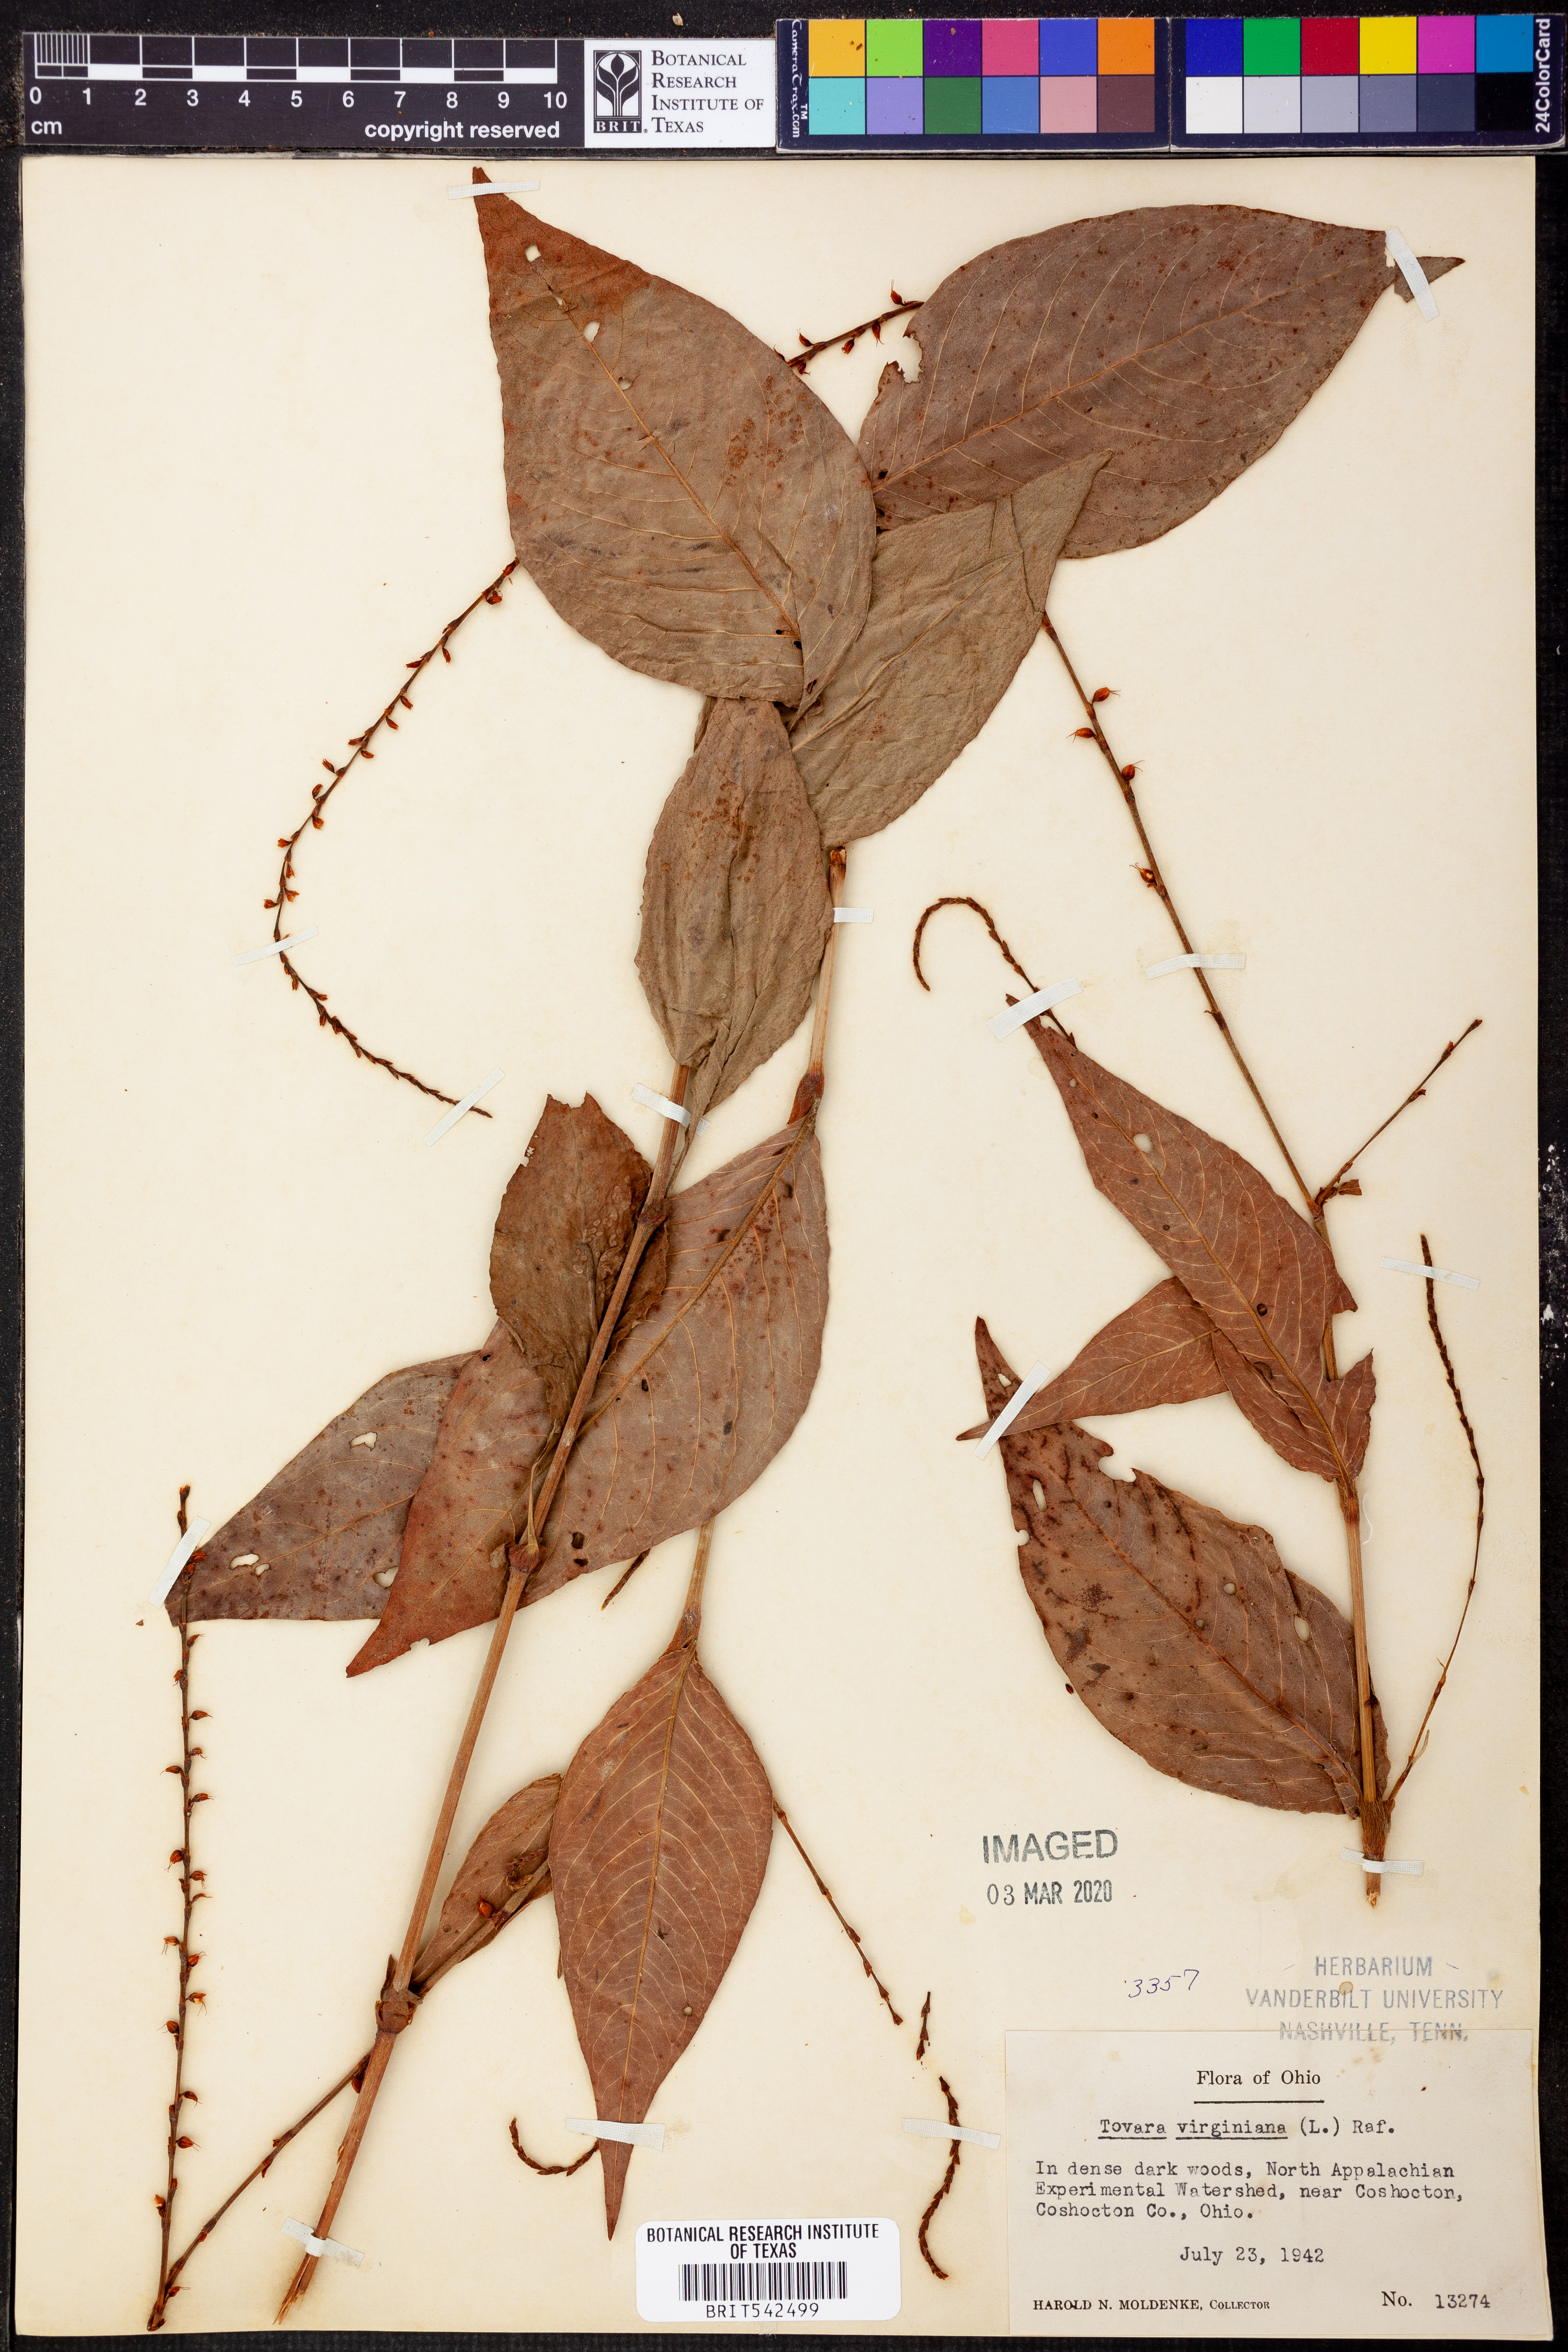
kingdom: Plantae
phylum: Tracheophyta
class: Magnoliopsida
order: Caryophyllales
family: Polygonaceae
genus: Persicaria
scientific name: Persicaria virginiana
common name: Jumpseed
